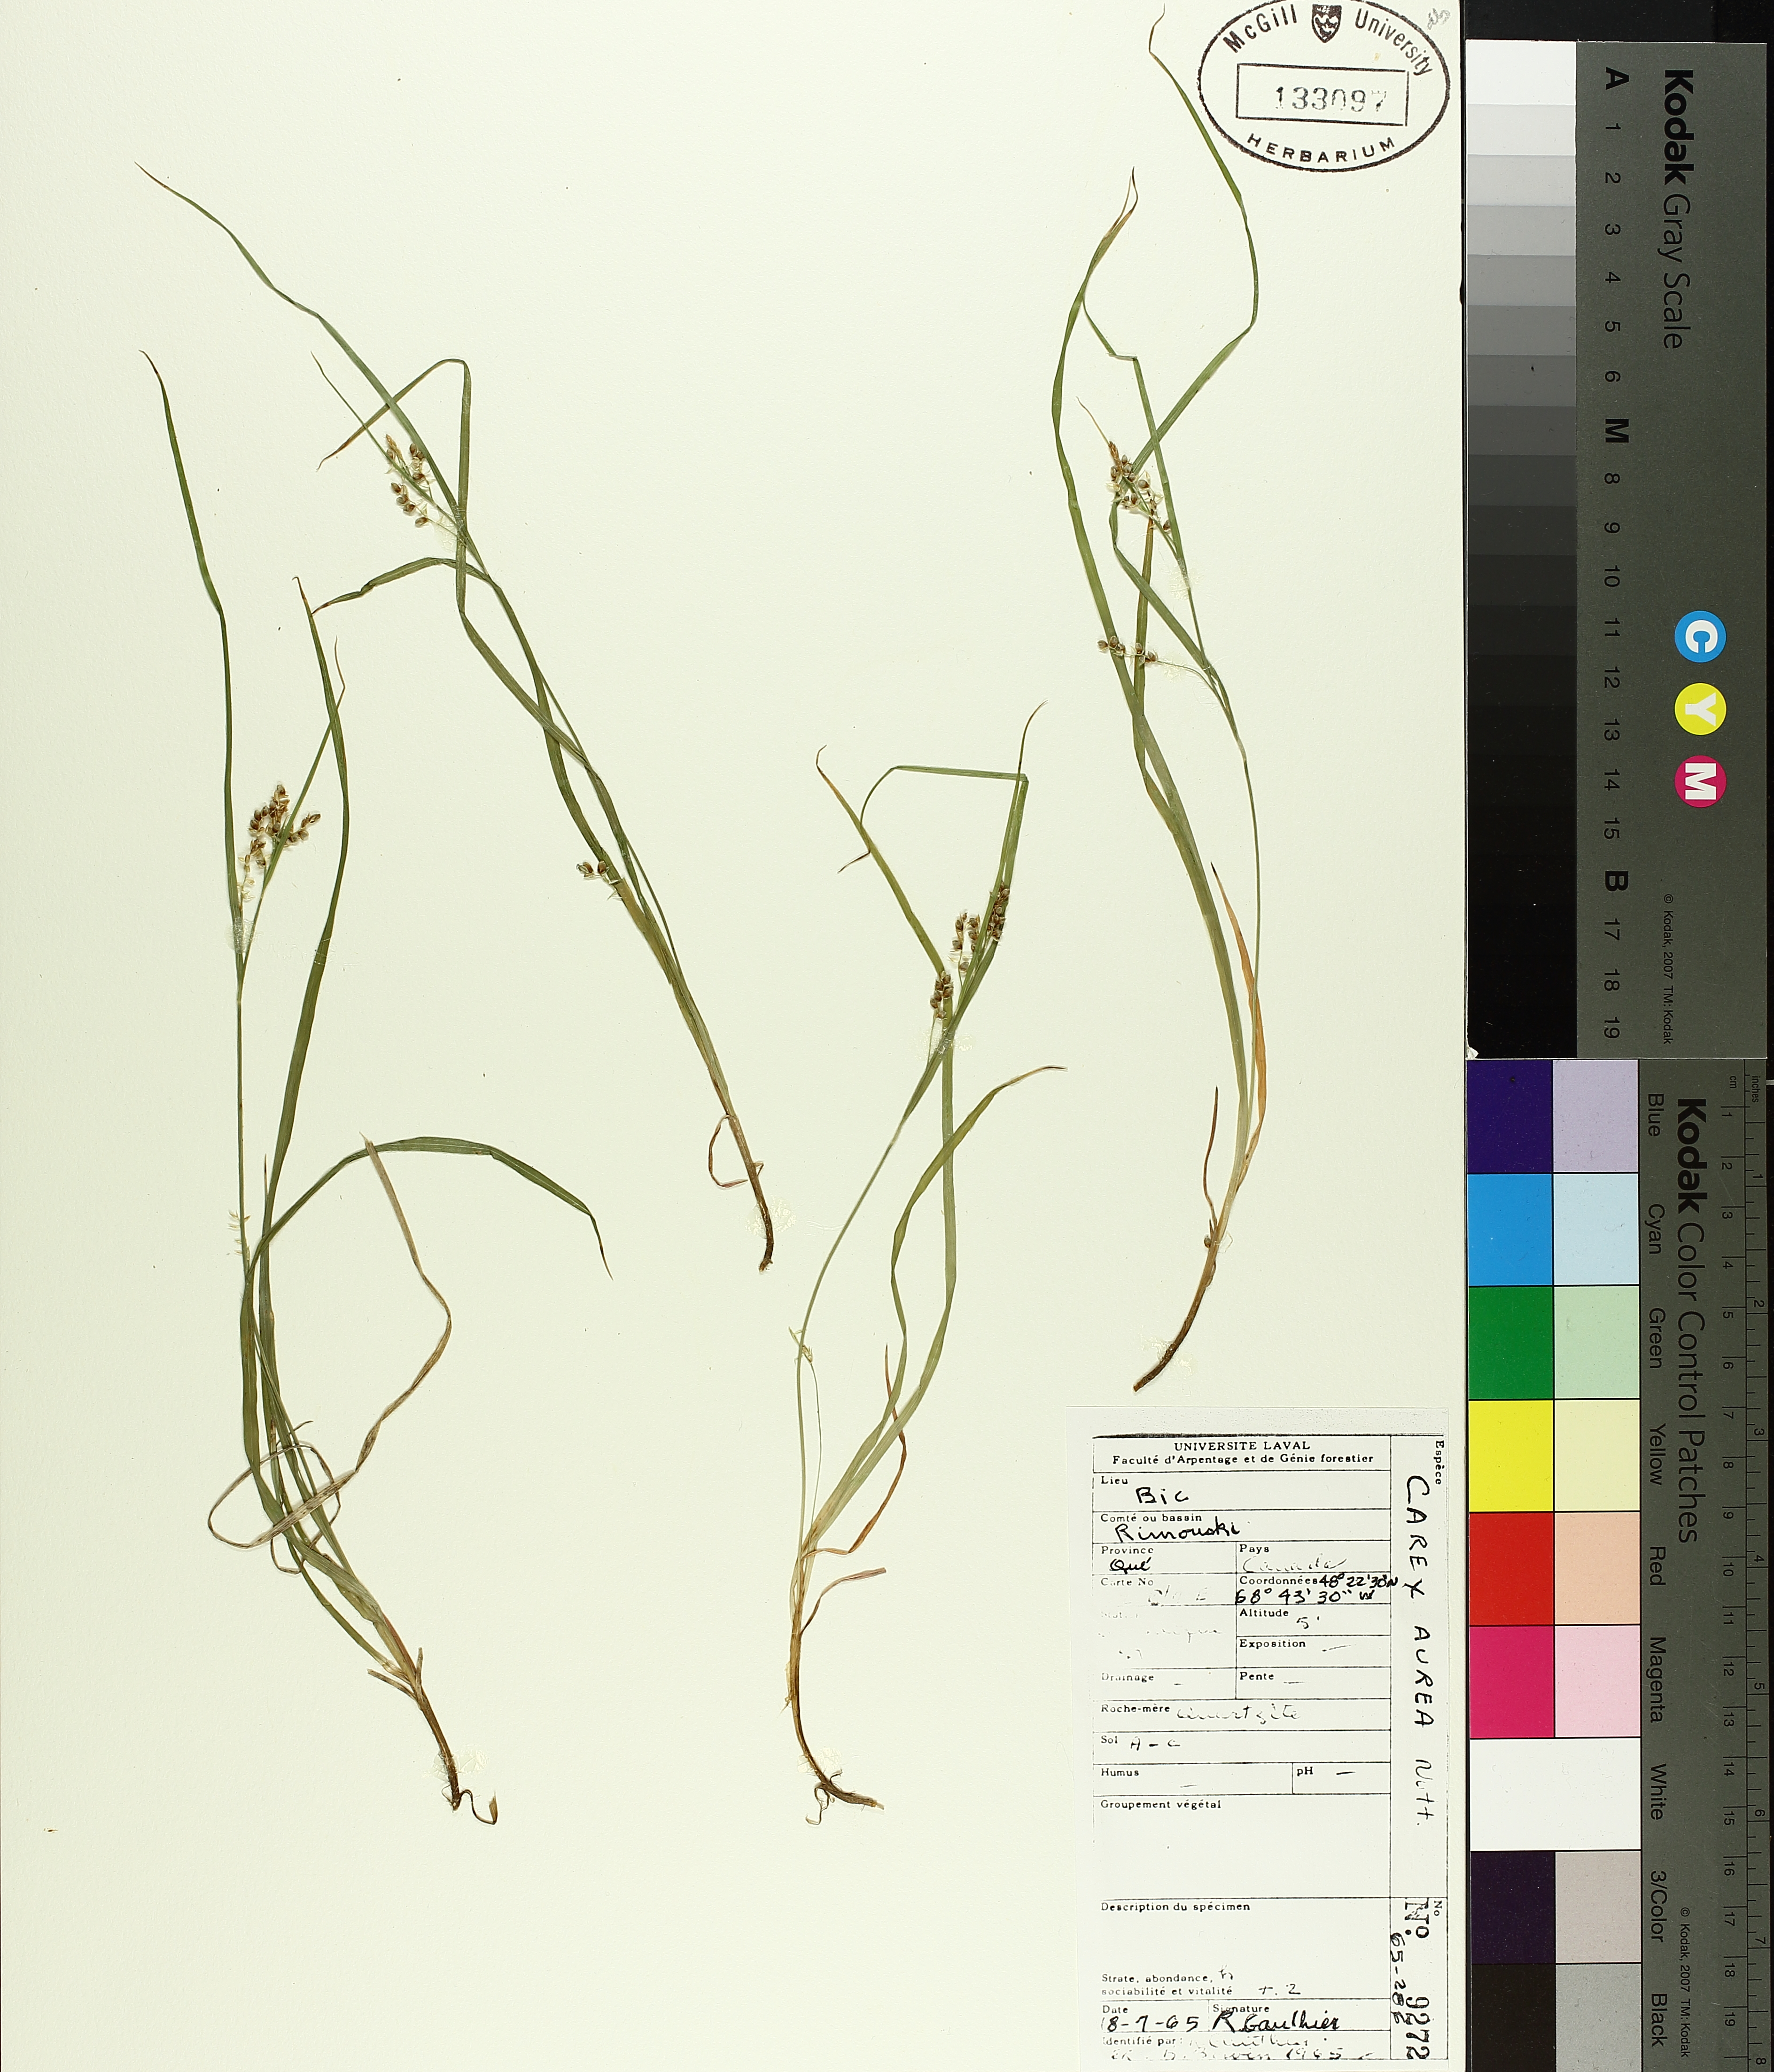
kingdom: Plantae
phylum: Tracheophyta
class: Liliopsida
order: Poales
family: Cyperaceae
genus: Carex
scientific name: Carex aurea
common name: Golden sedge
